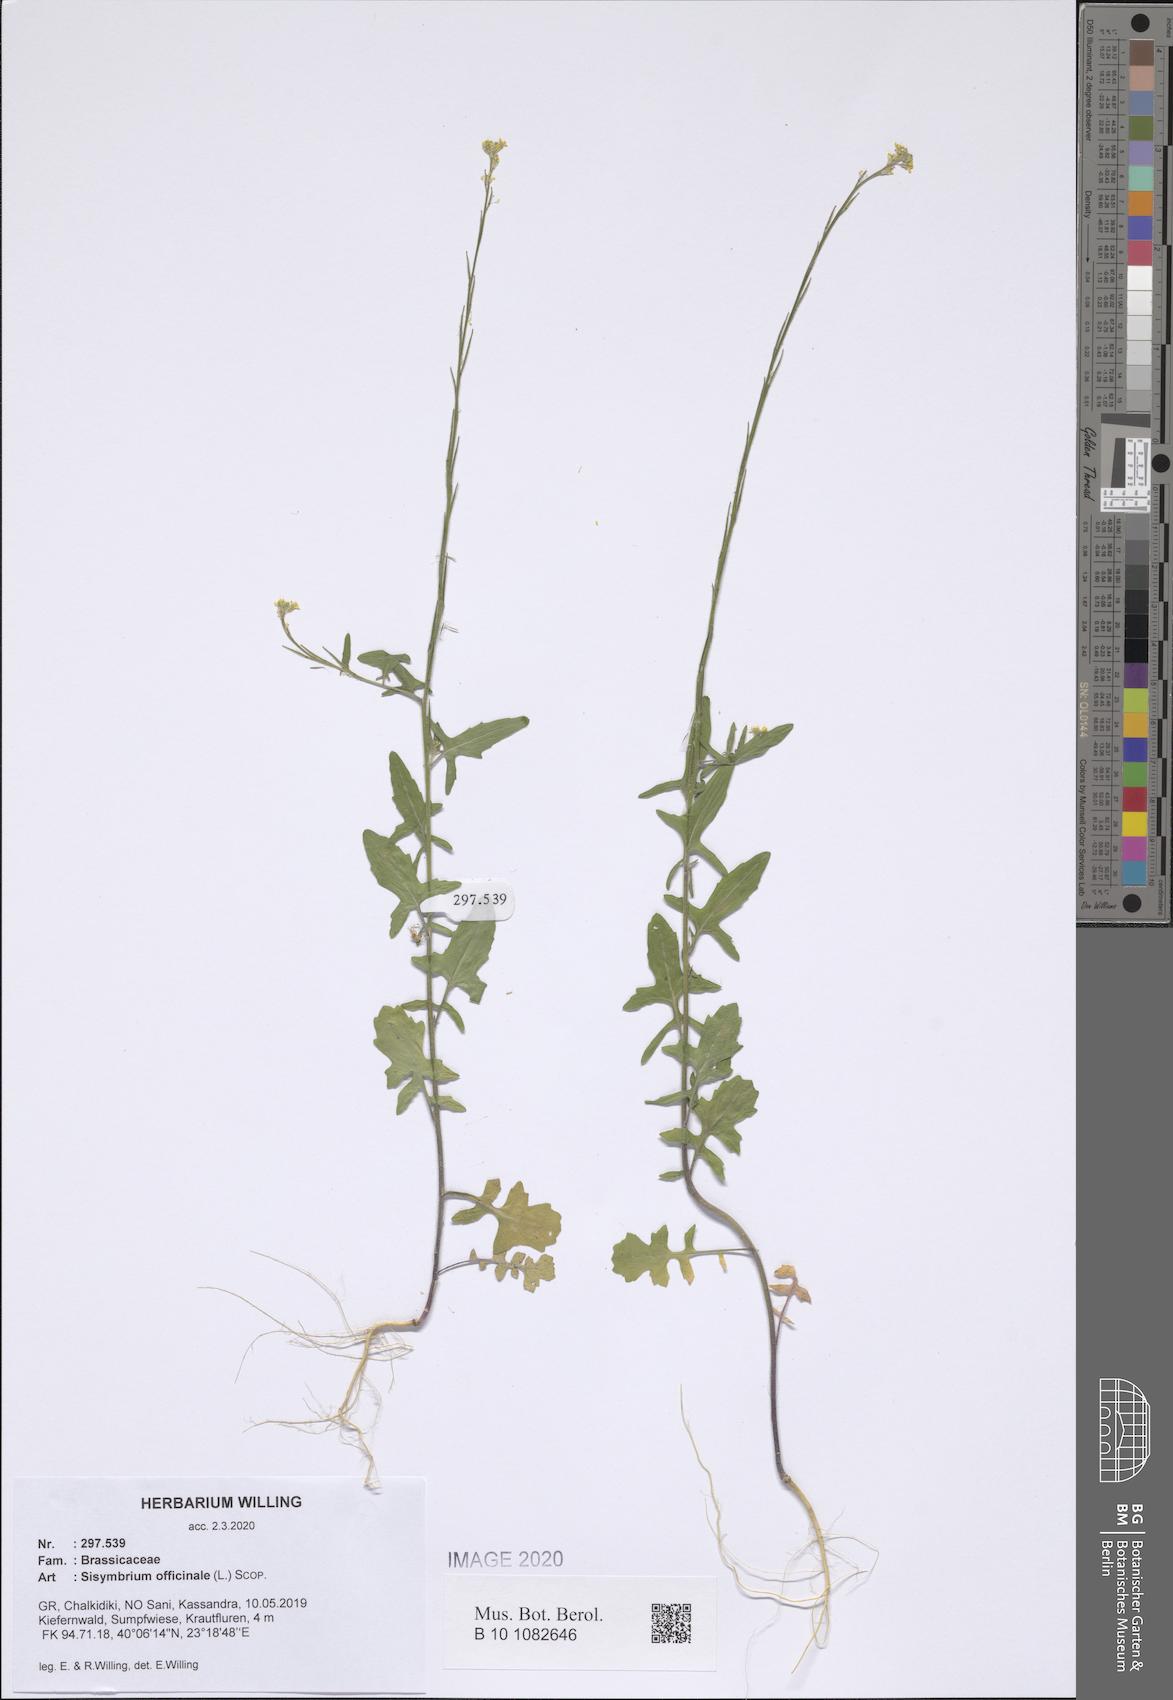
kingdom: Plantae
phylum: Tracheophyta
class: Magnoliopsida
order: Brassicales
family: Brassicaceae
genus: Sisymbrium
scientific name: Sisymbrium officinale
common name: Hedge mustard
